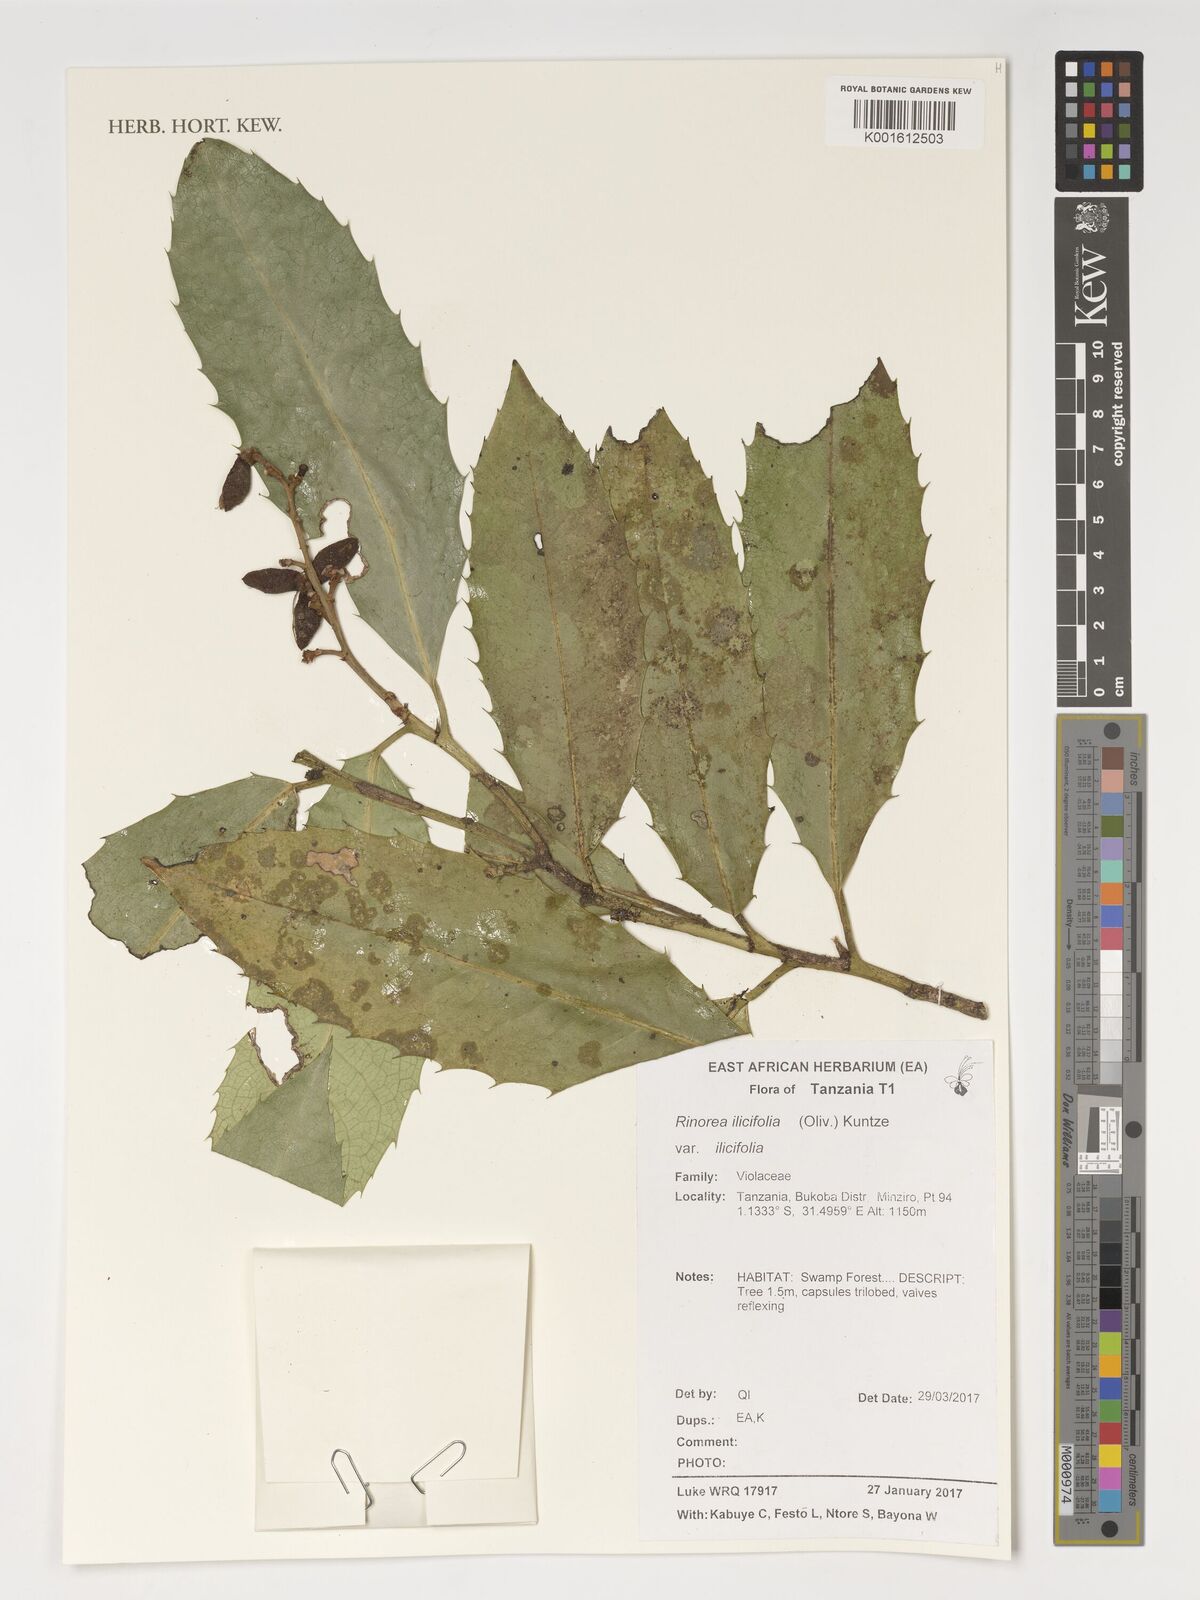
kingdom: Plantae
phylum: Tracheophyta
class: Magnoliopsida
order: Malpighiales
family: Violaceae
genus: Rinorea
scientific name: Rinorea ilicifolia
